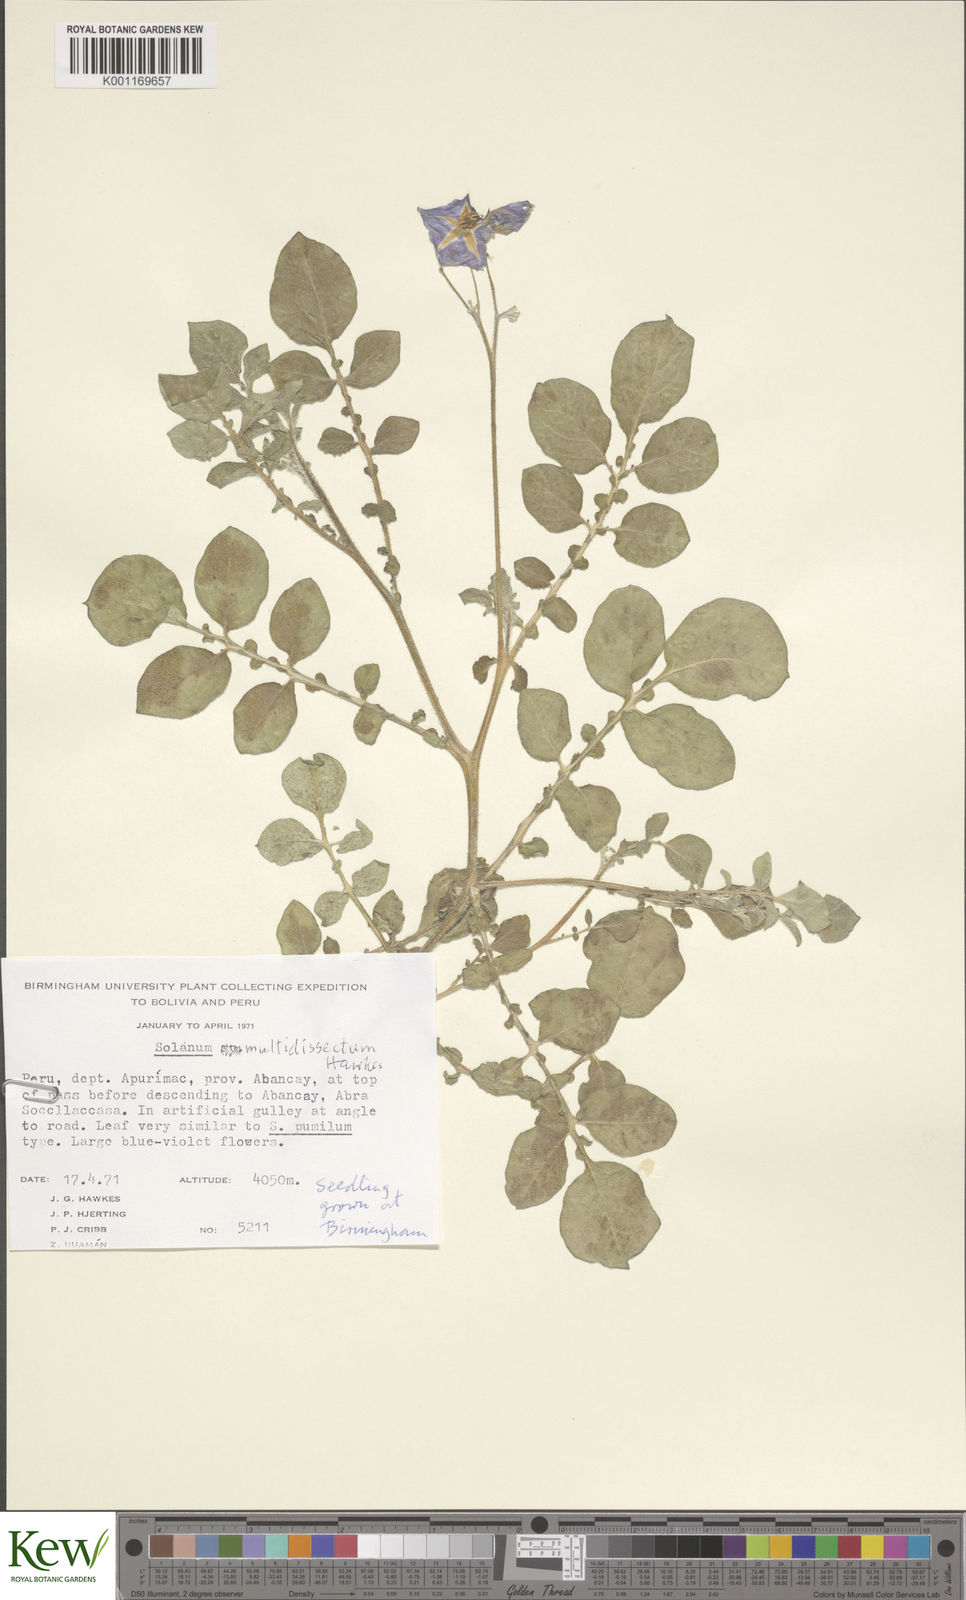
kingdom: Plantae
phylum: Tracheophyta
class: Magnoliopsida
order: Solanales
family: Solanaceae
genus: Solanum
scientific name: Solanum candolleanum
